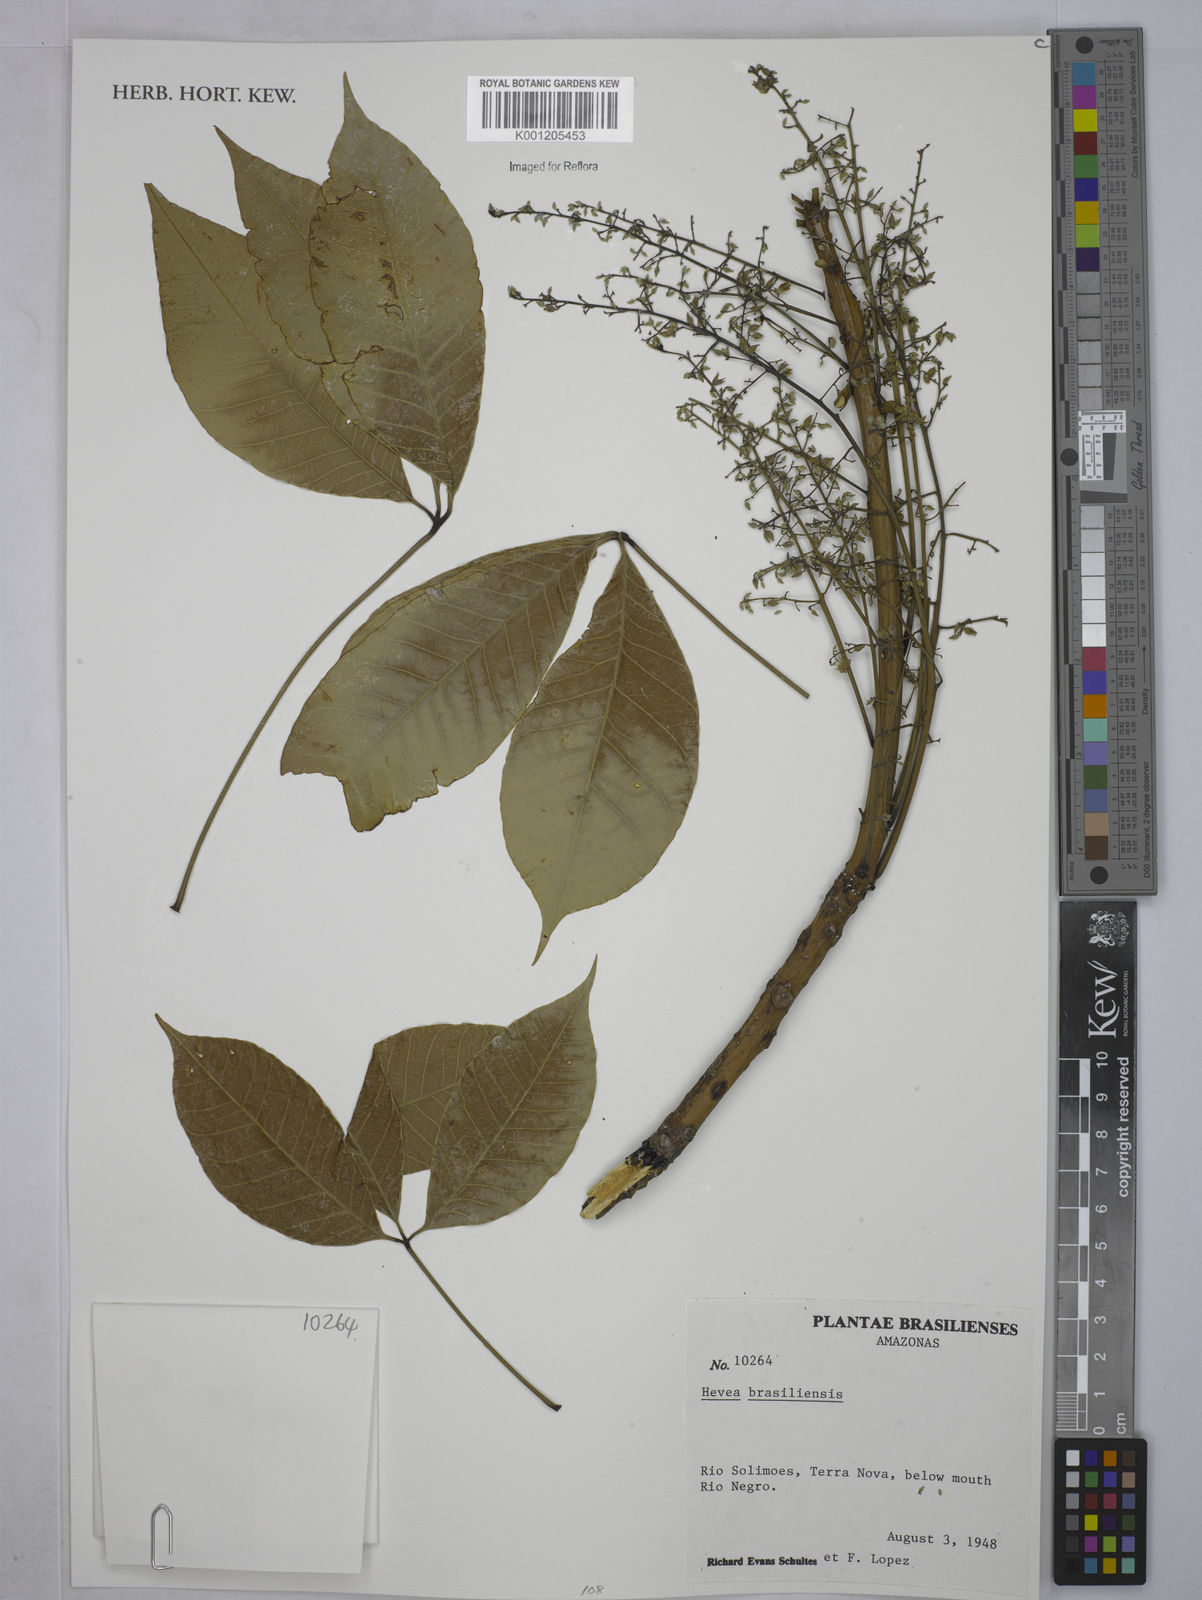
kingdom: Plantae
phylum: Tracheophyta
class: Magnoliopsida
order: Malpighiales
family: Euphorbiaceae
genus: Hevea
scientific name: Hevea
